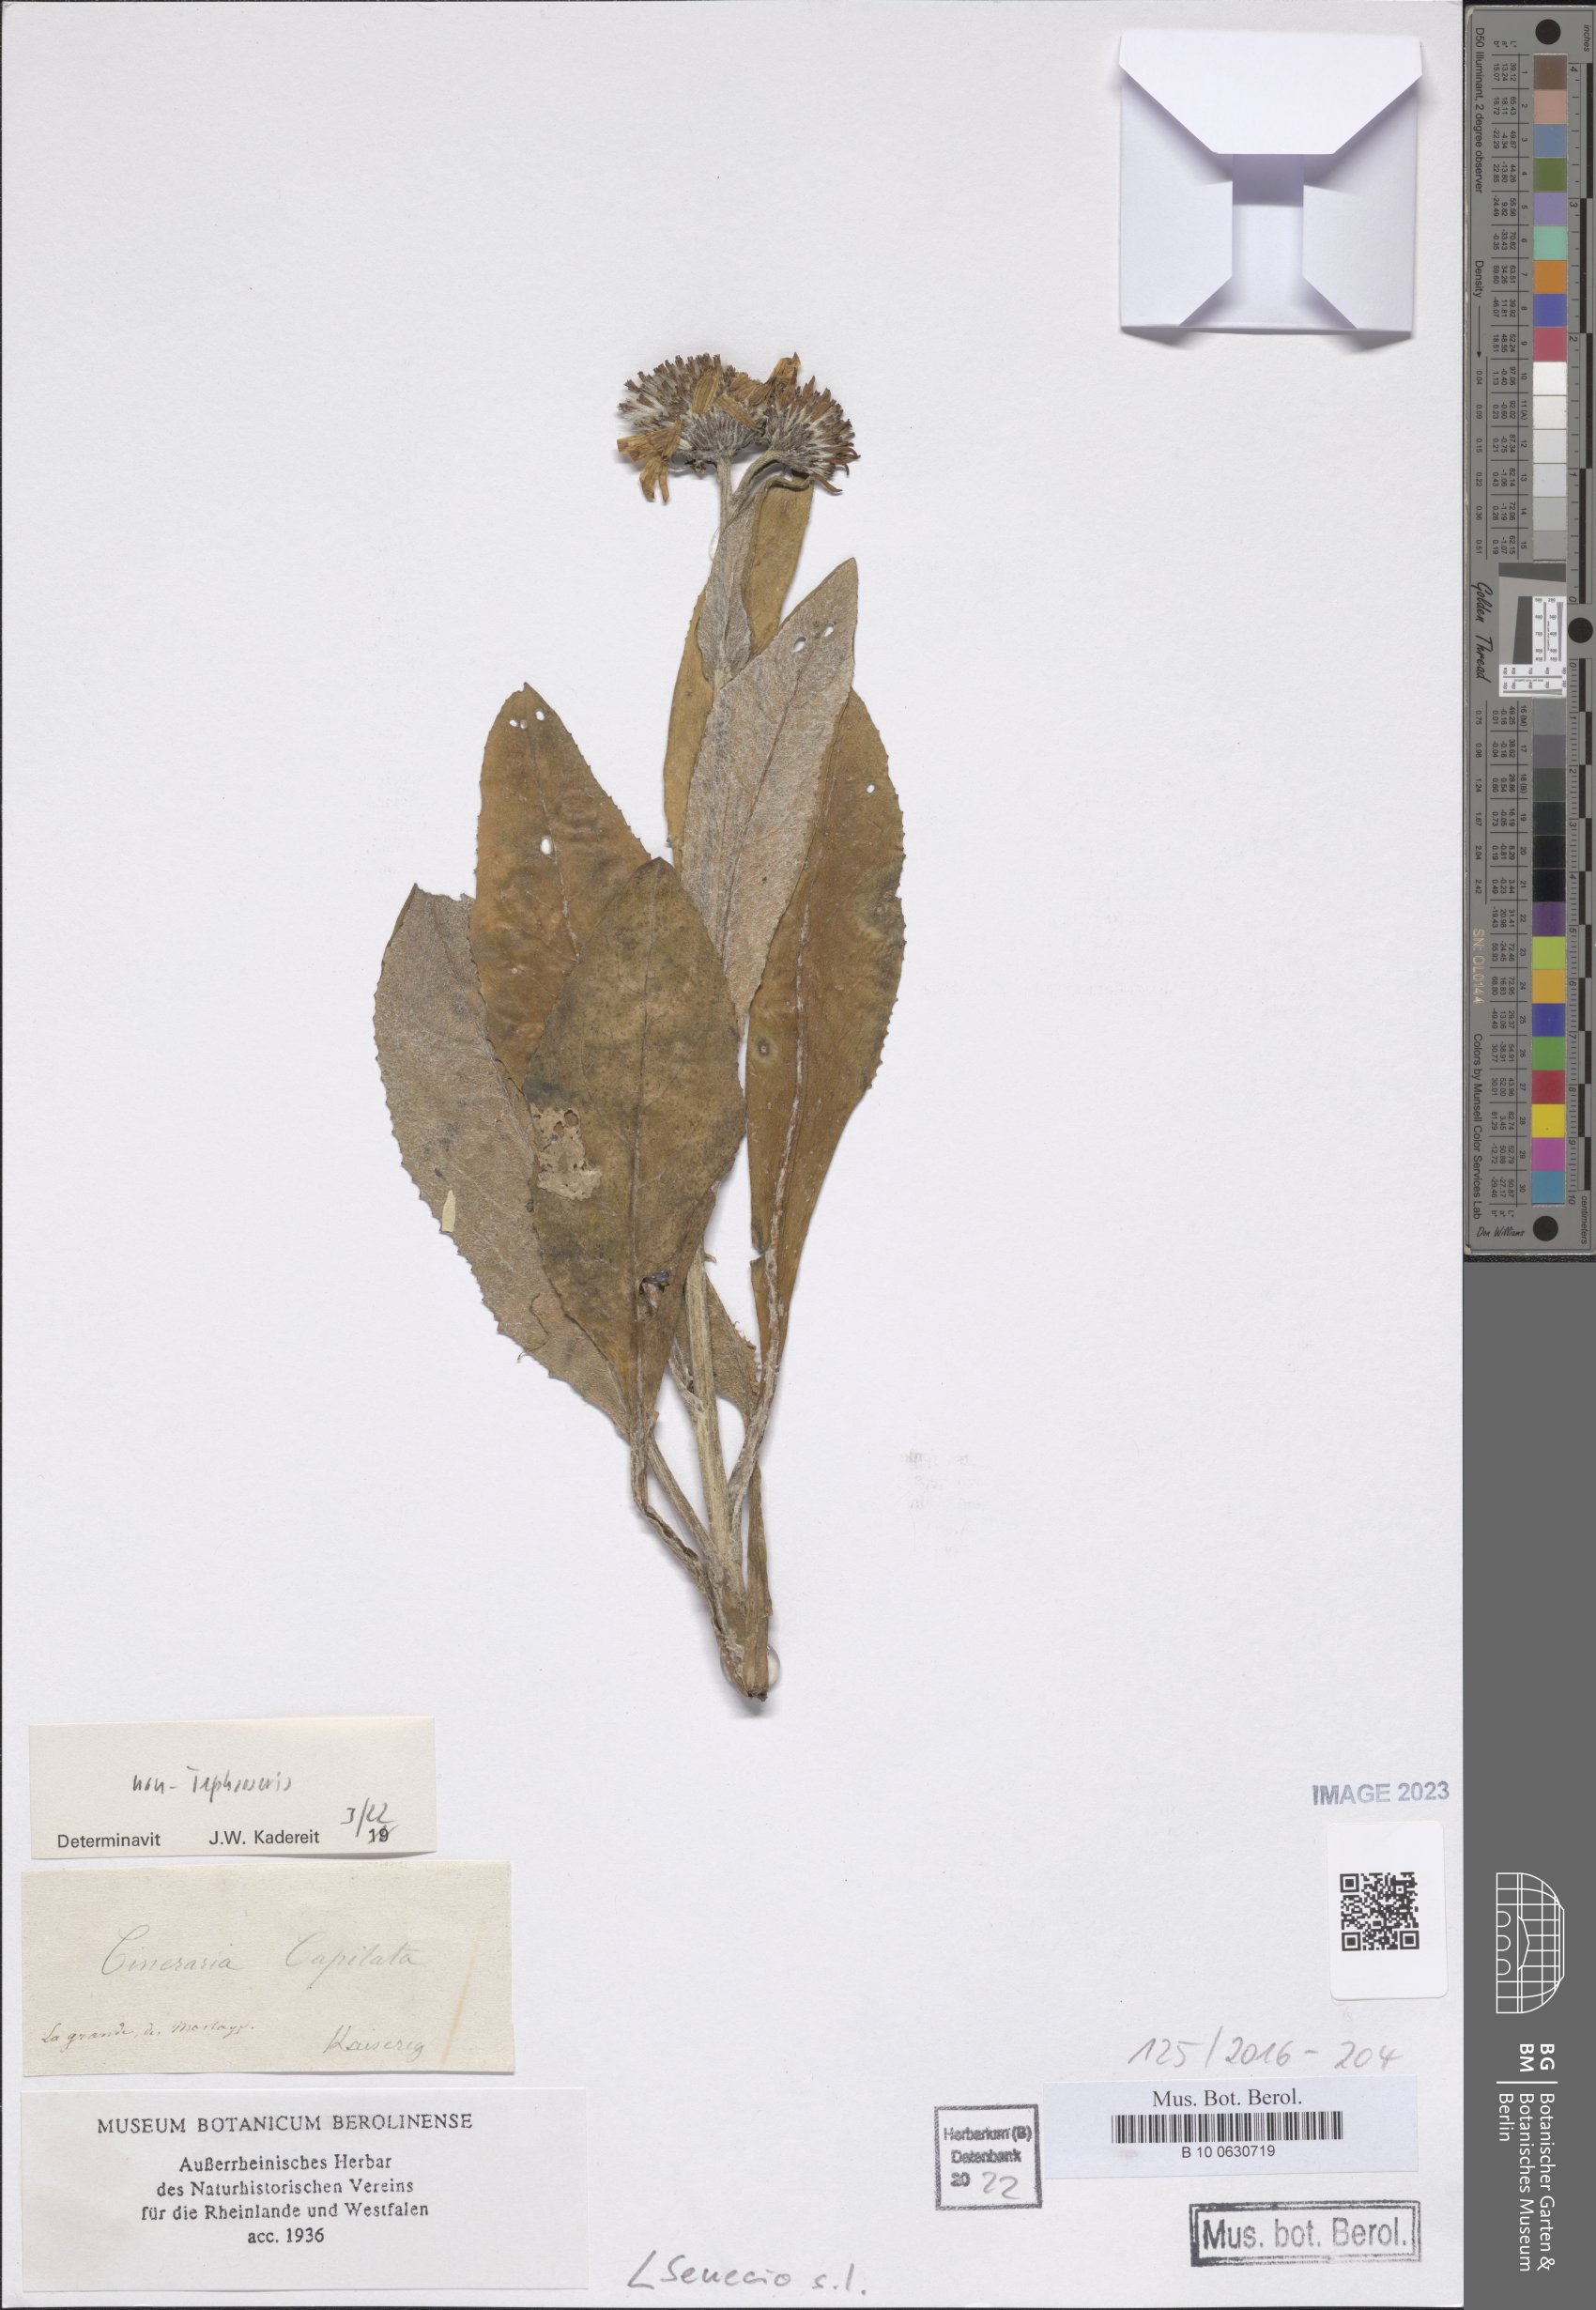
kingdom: Plantae
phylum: Tracheophyta
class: Magnoliopsida
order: Asterales
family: Asteraceae
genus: Senecio
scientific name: Senecio
